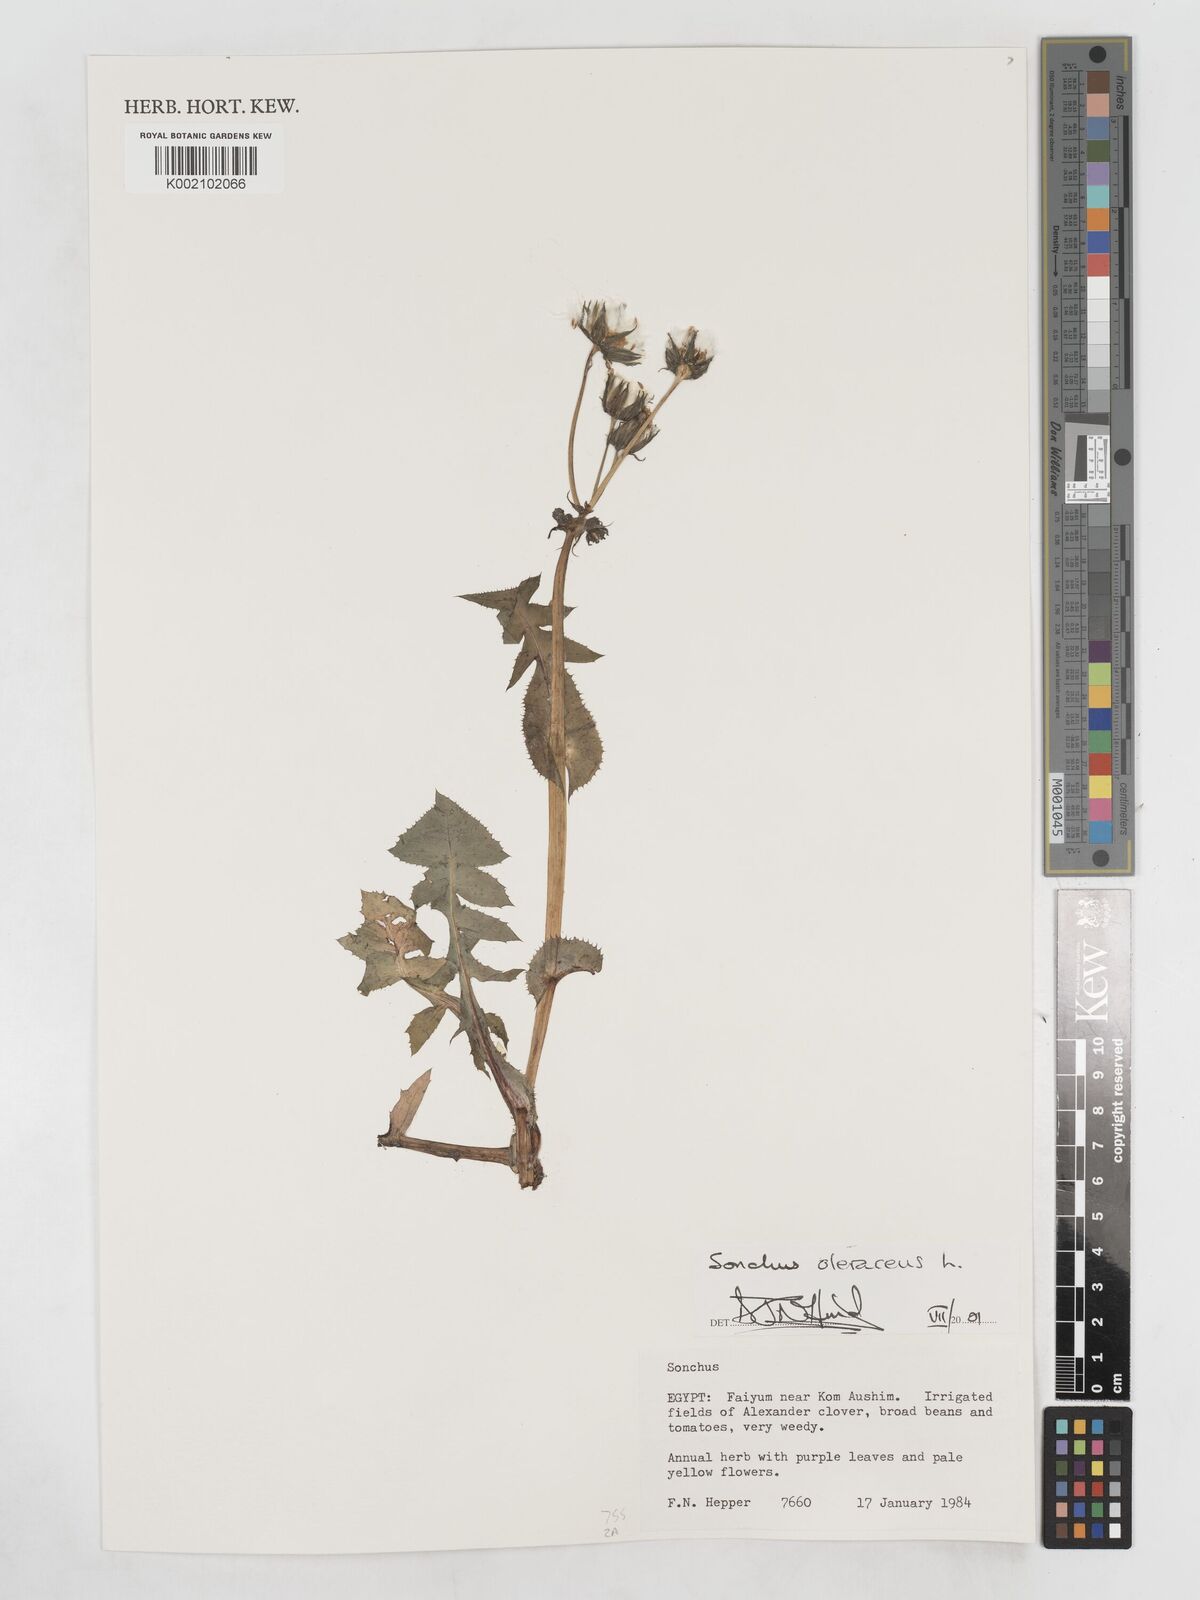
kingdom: Plantae
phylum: Tracheophyta
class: Magnoliopsida
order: Asterales
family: Asteraceae
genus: Sonchus
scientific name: Sonchus oleraceus
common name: Common sowthistle
